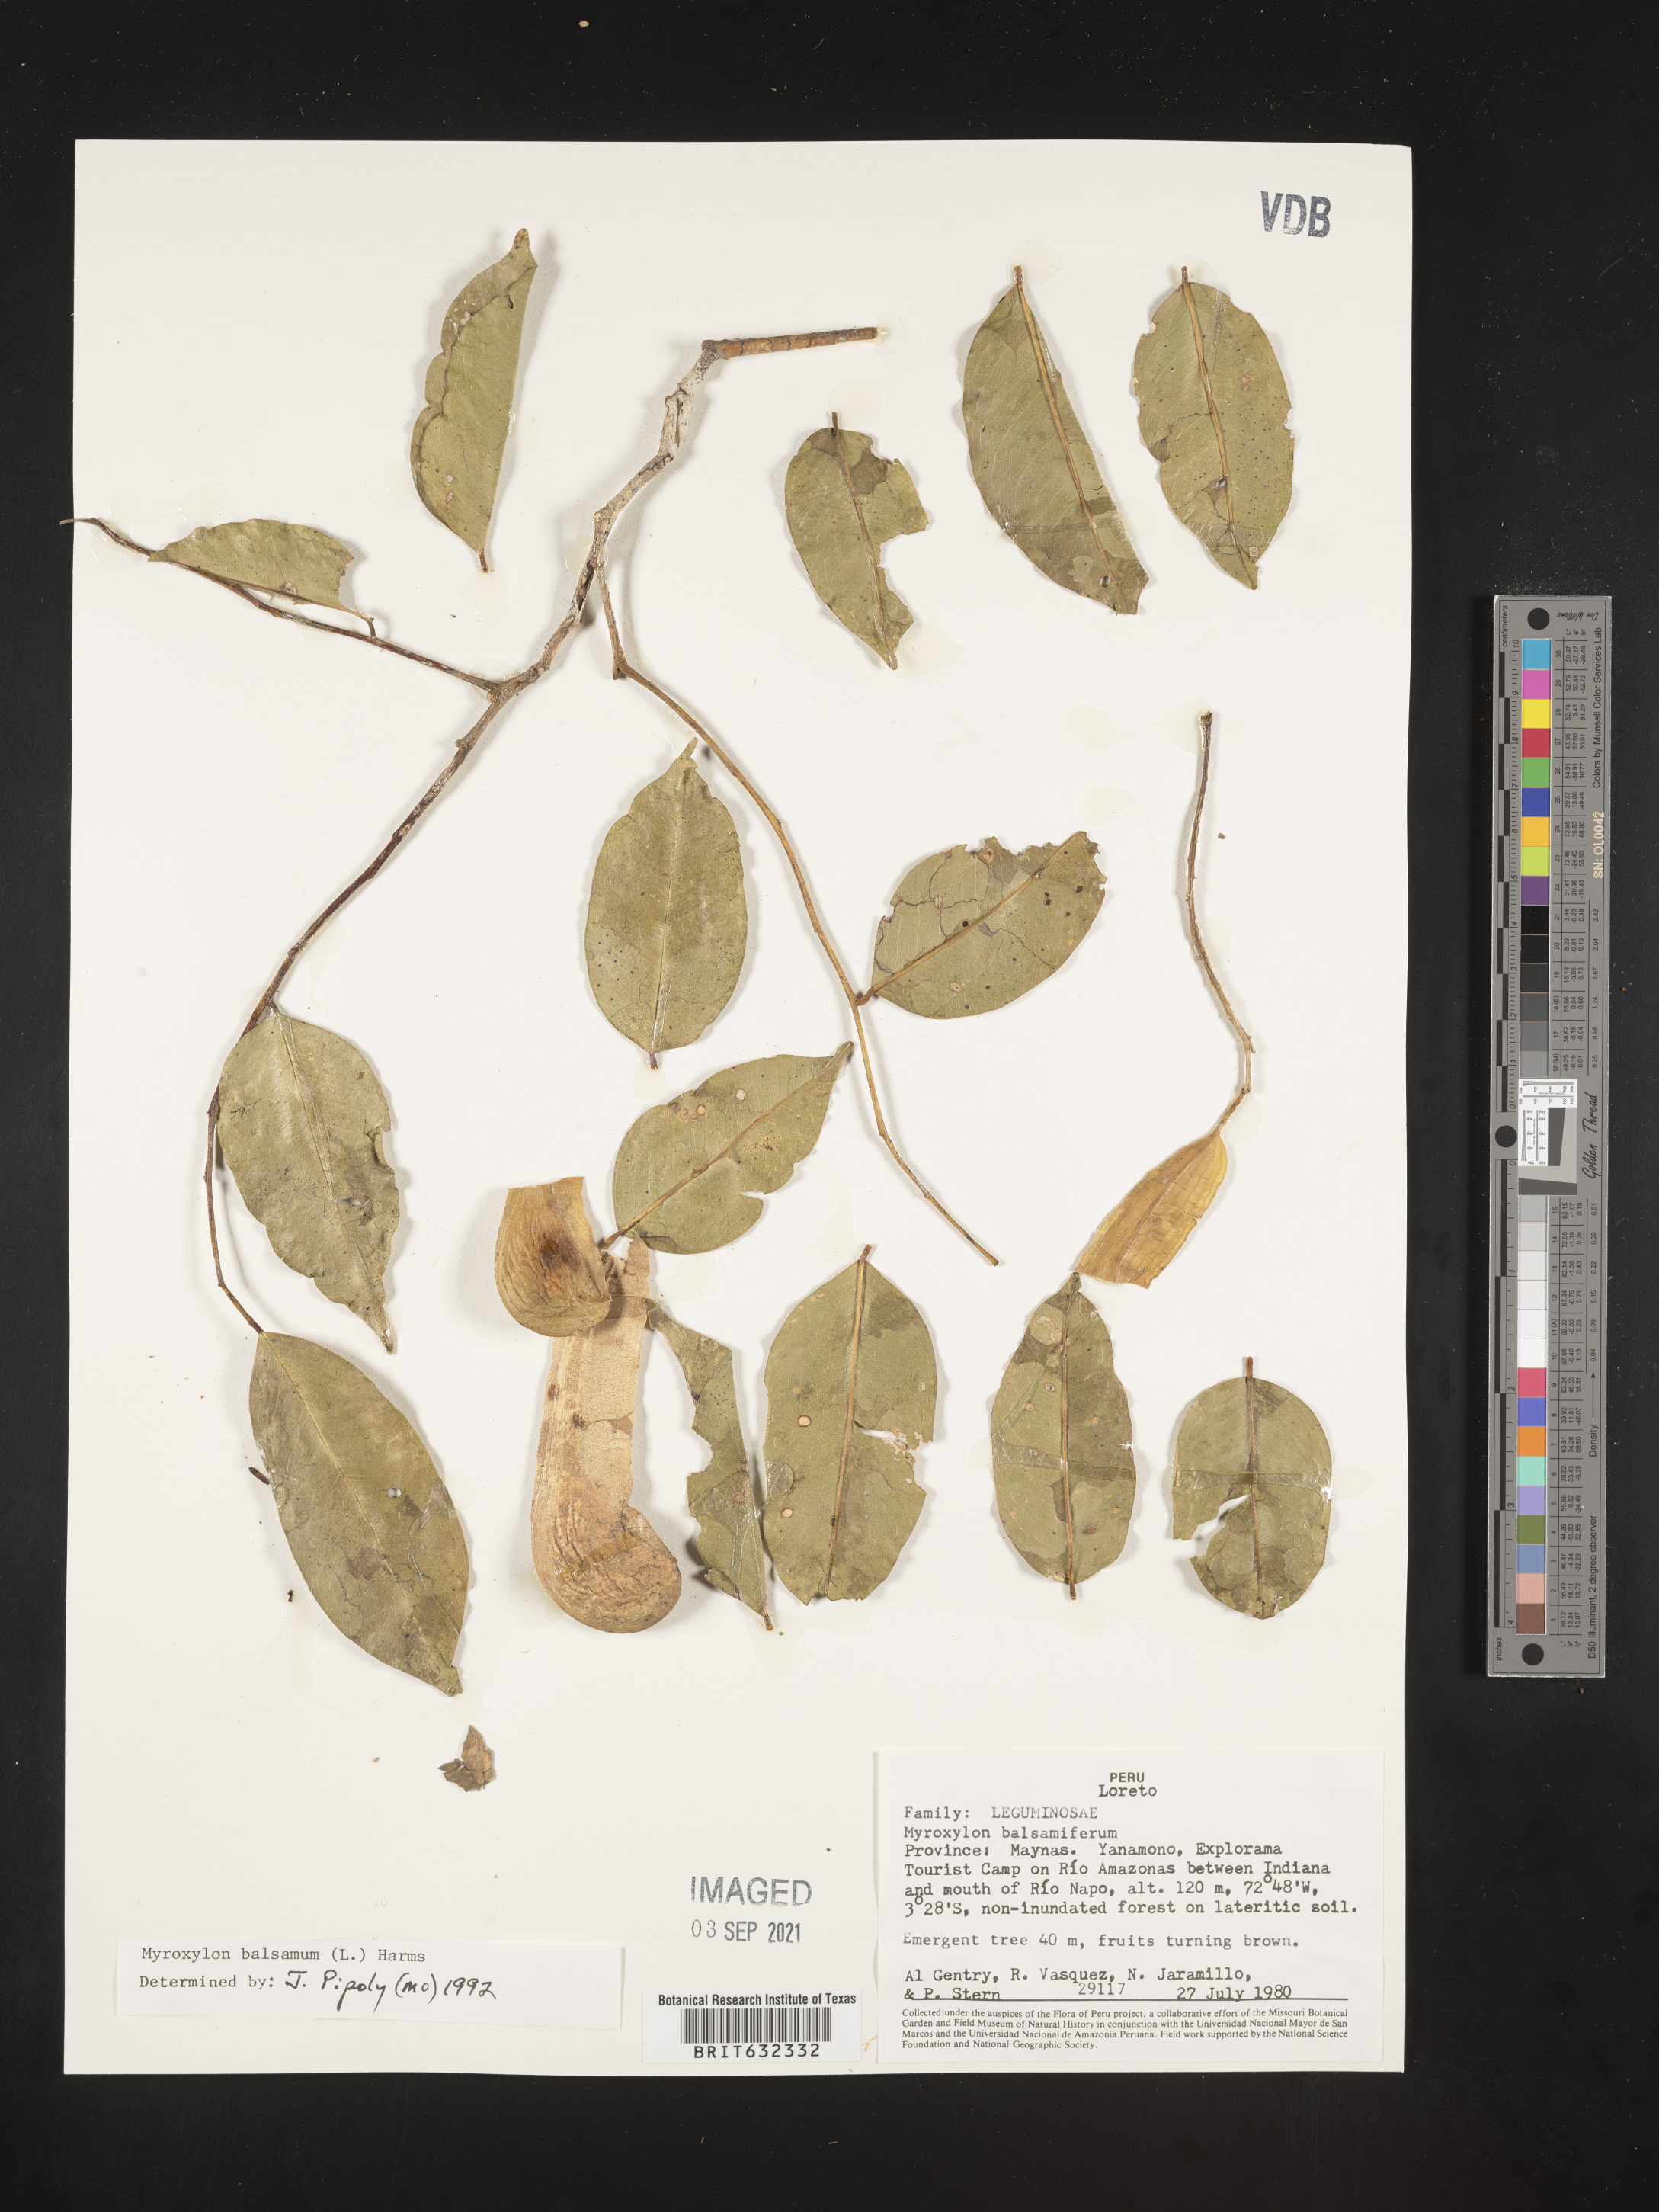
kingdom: Plantae
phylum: Tracheophyta
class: Magnoliopsida
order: Fabales
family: Fabaceae
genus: Myroxylon
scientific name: Myroxylon
